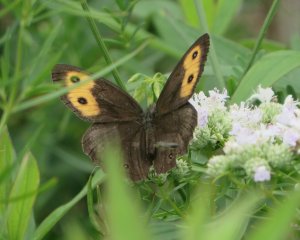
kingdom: Animalia
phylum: Arthropoda
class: Insecta
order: Lepidoptera
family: Nymphalidae
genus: Cercyonis
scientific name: Cercyonis pegala
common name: Common Wood-Nymph
